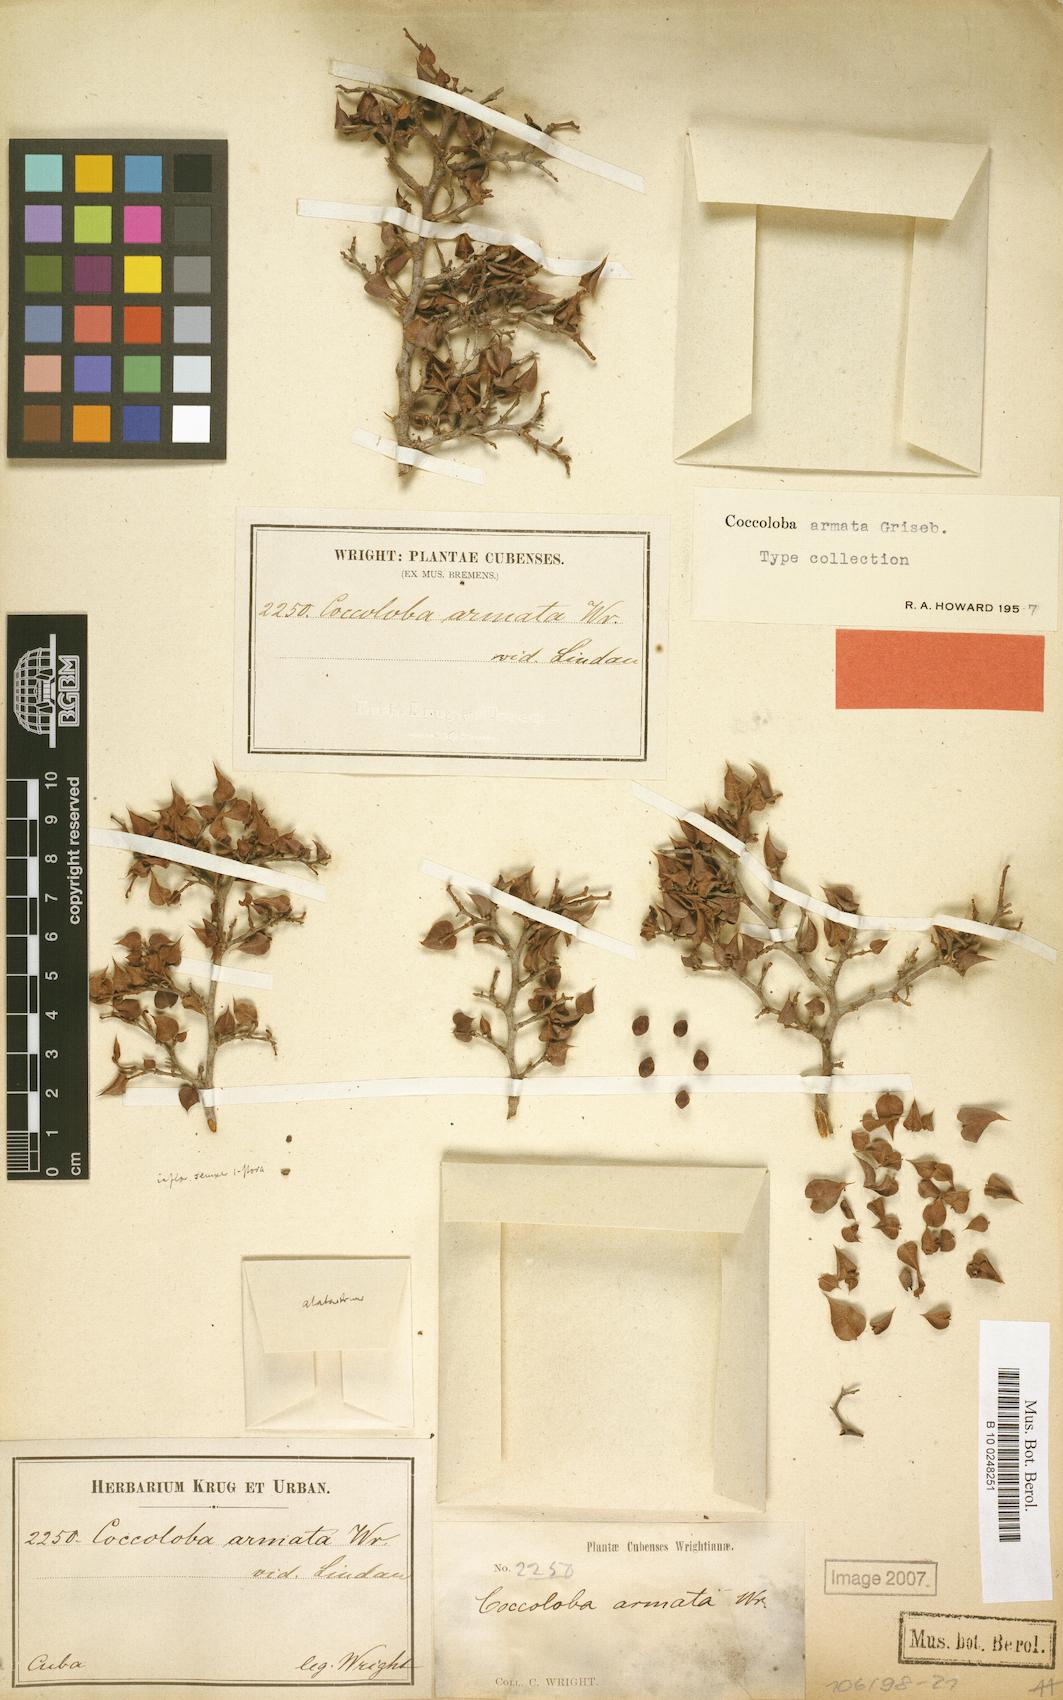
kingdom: Plantae
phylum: Tracheophyta
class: Magnoliopsida
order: Caryophyllales
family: Polygonaceae
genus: Coccoloba
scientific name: Coccoloba armata
